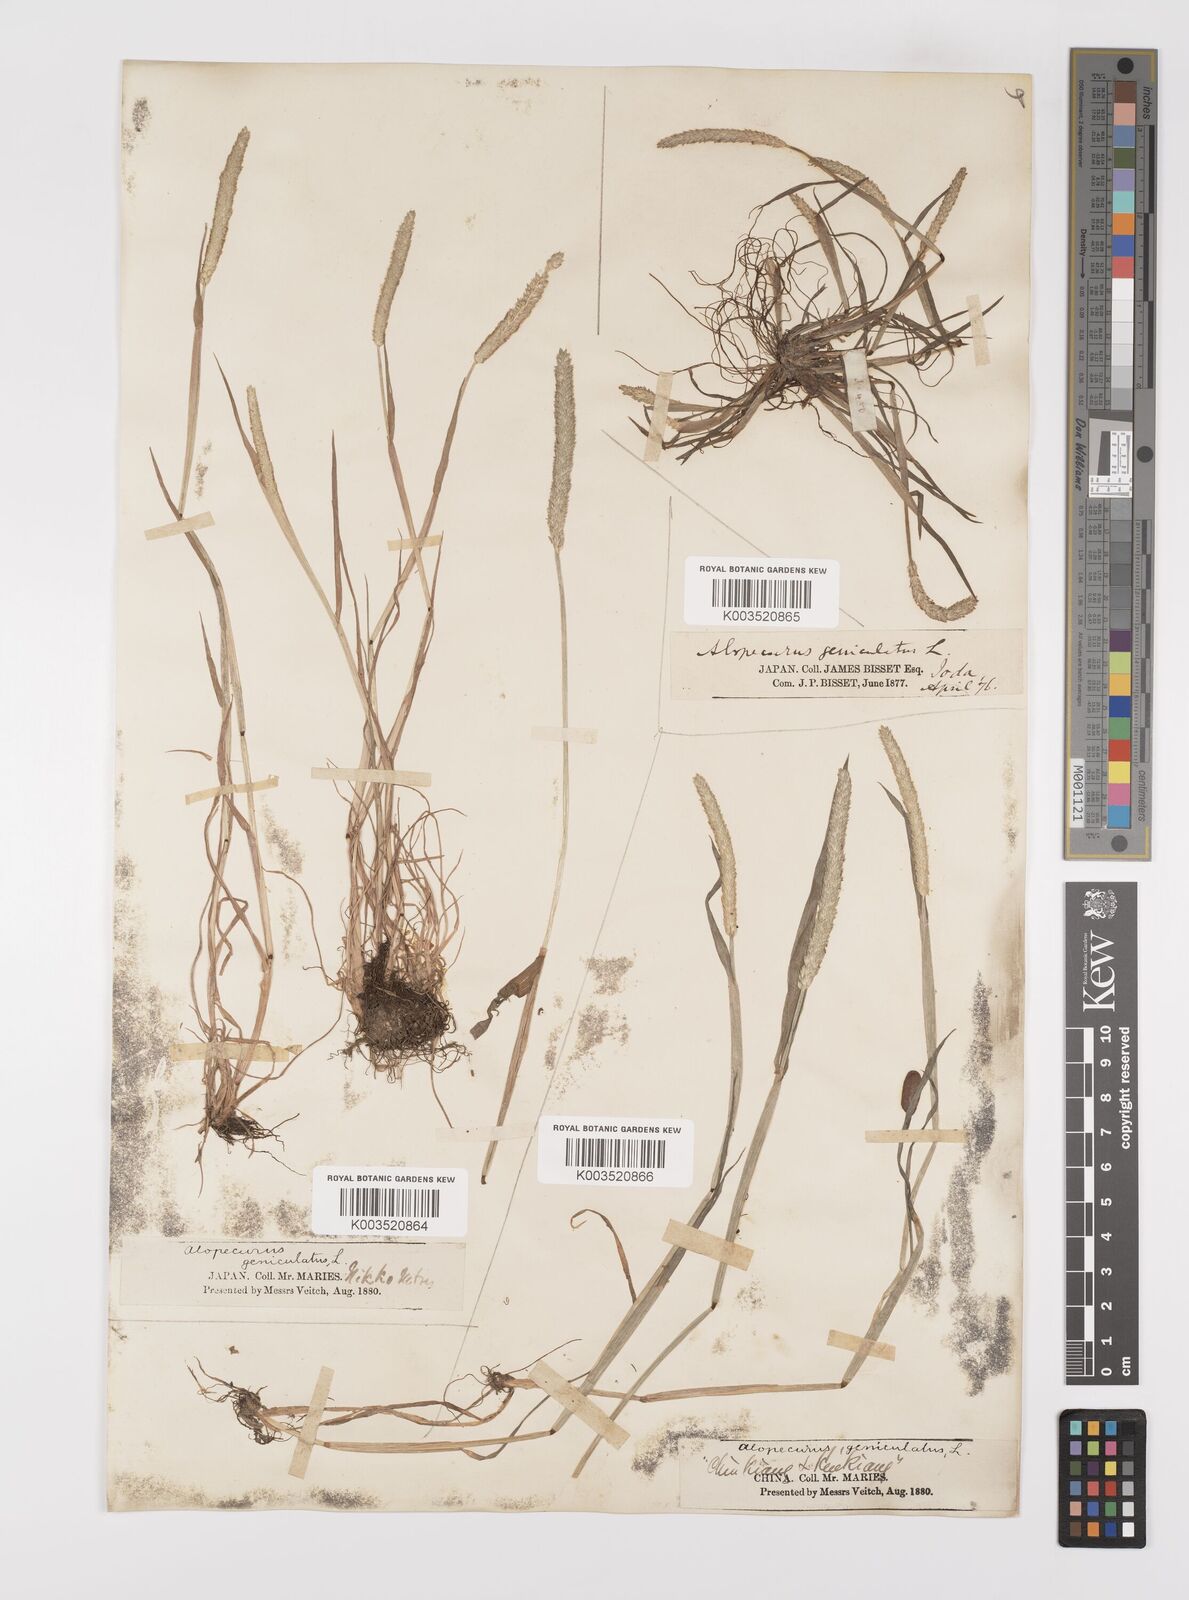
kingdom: Plantae
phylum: Tracheophyta
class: Liliopsida
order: Poales
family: Poaceae
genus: Alopecurus
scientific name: Alopecurus aequalis
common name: Orange foxtail
